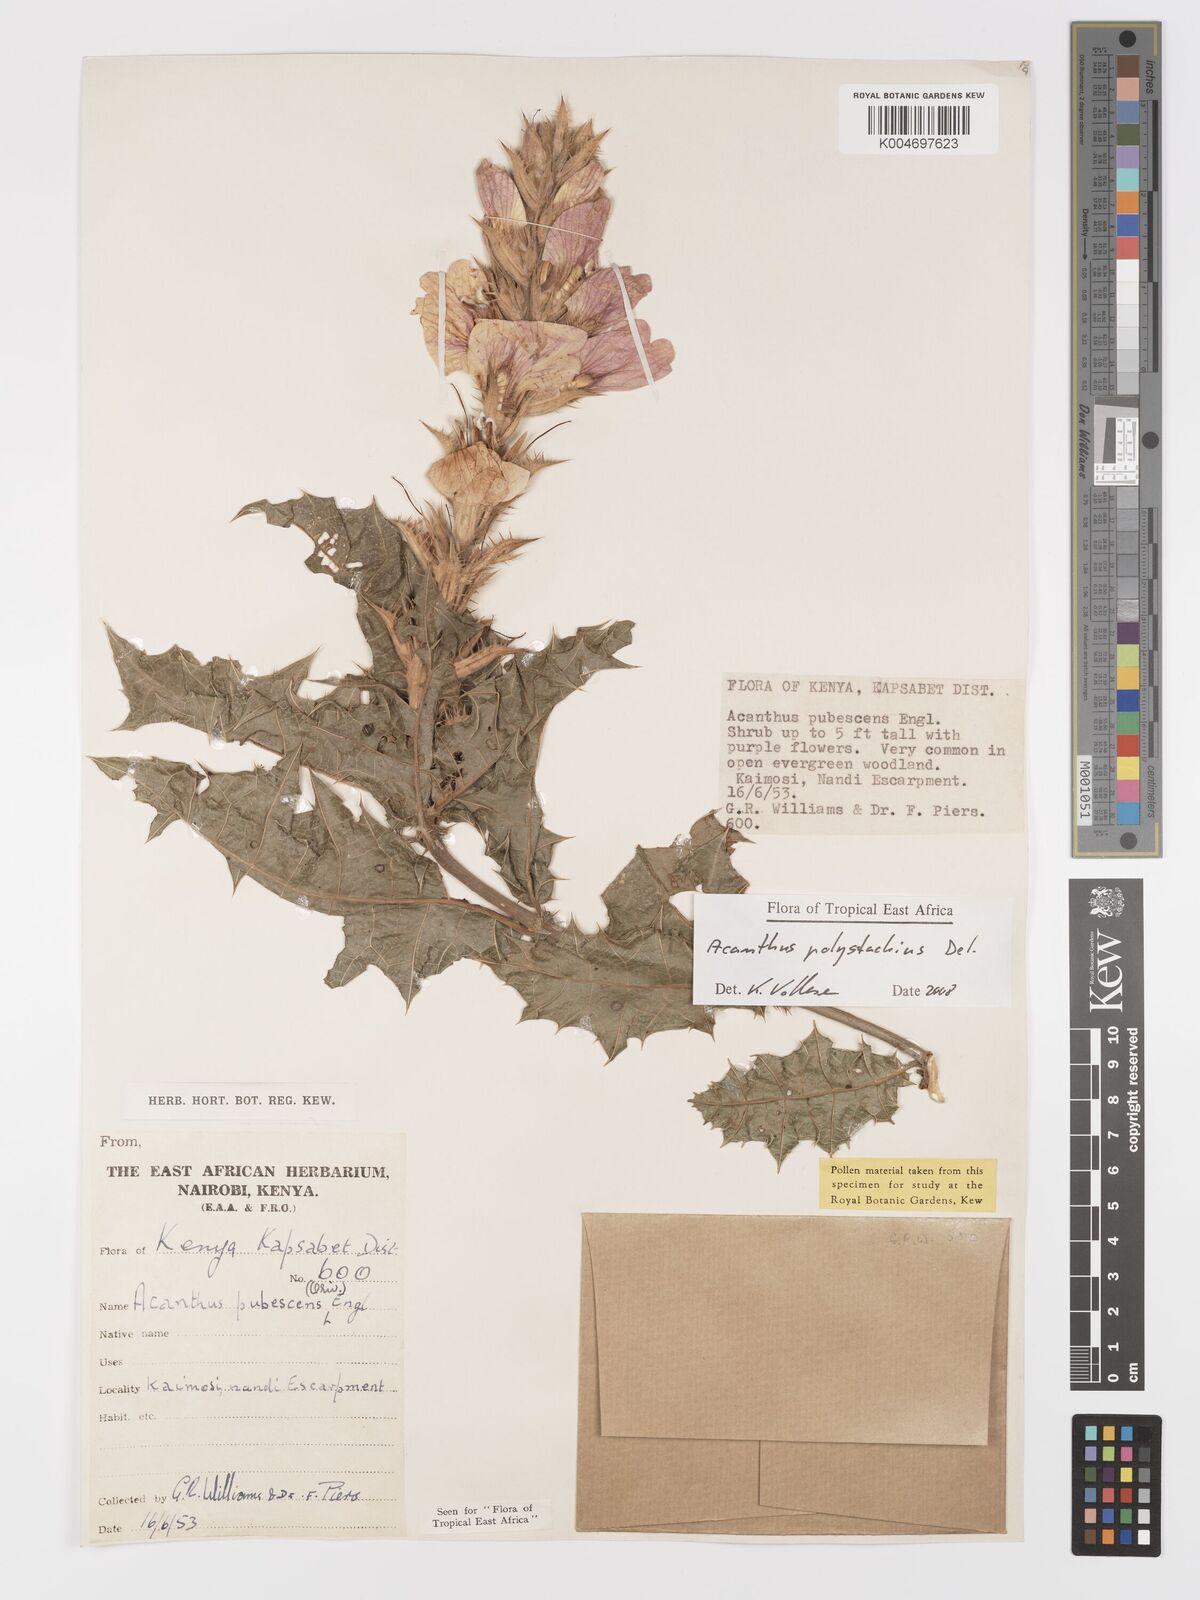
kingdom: Plantae
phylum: Tracheophyta
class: Magnoliopsida
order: Lamiales
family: Acanthaceae
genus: Acanthus
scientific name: Acanthus polystachyus
